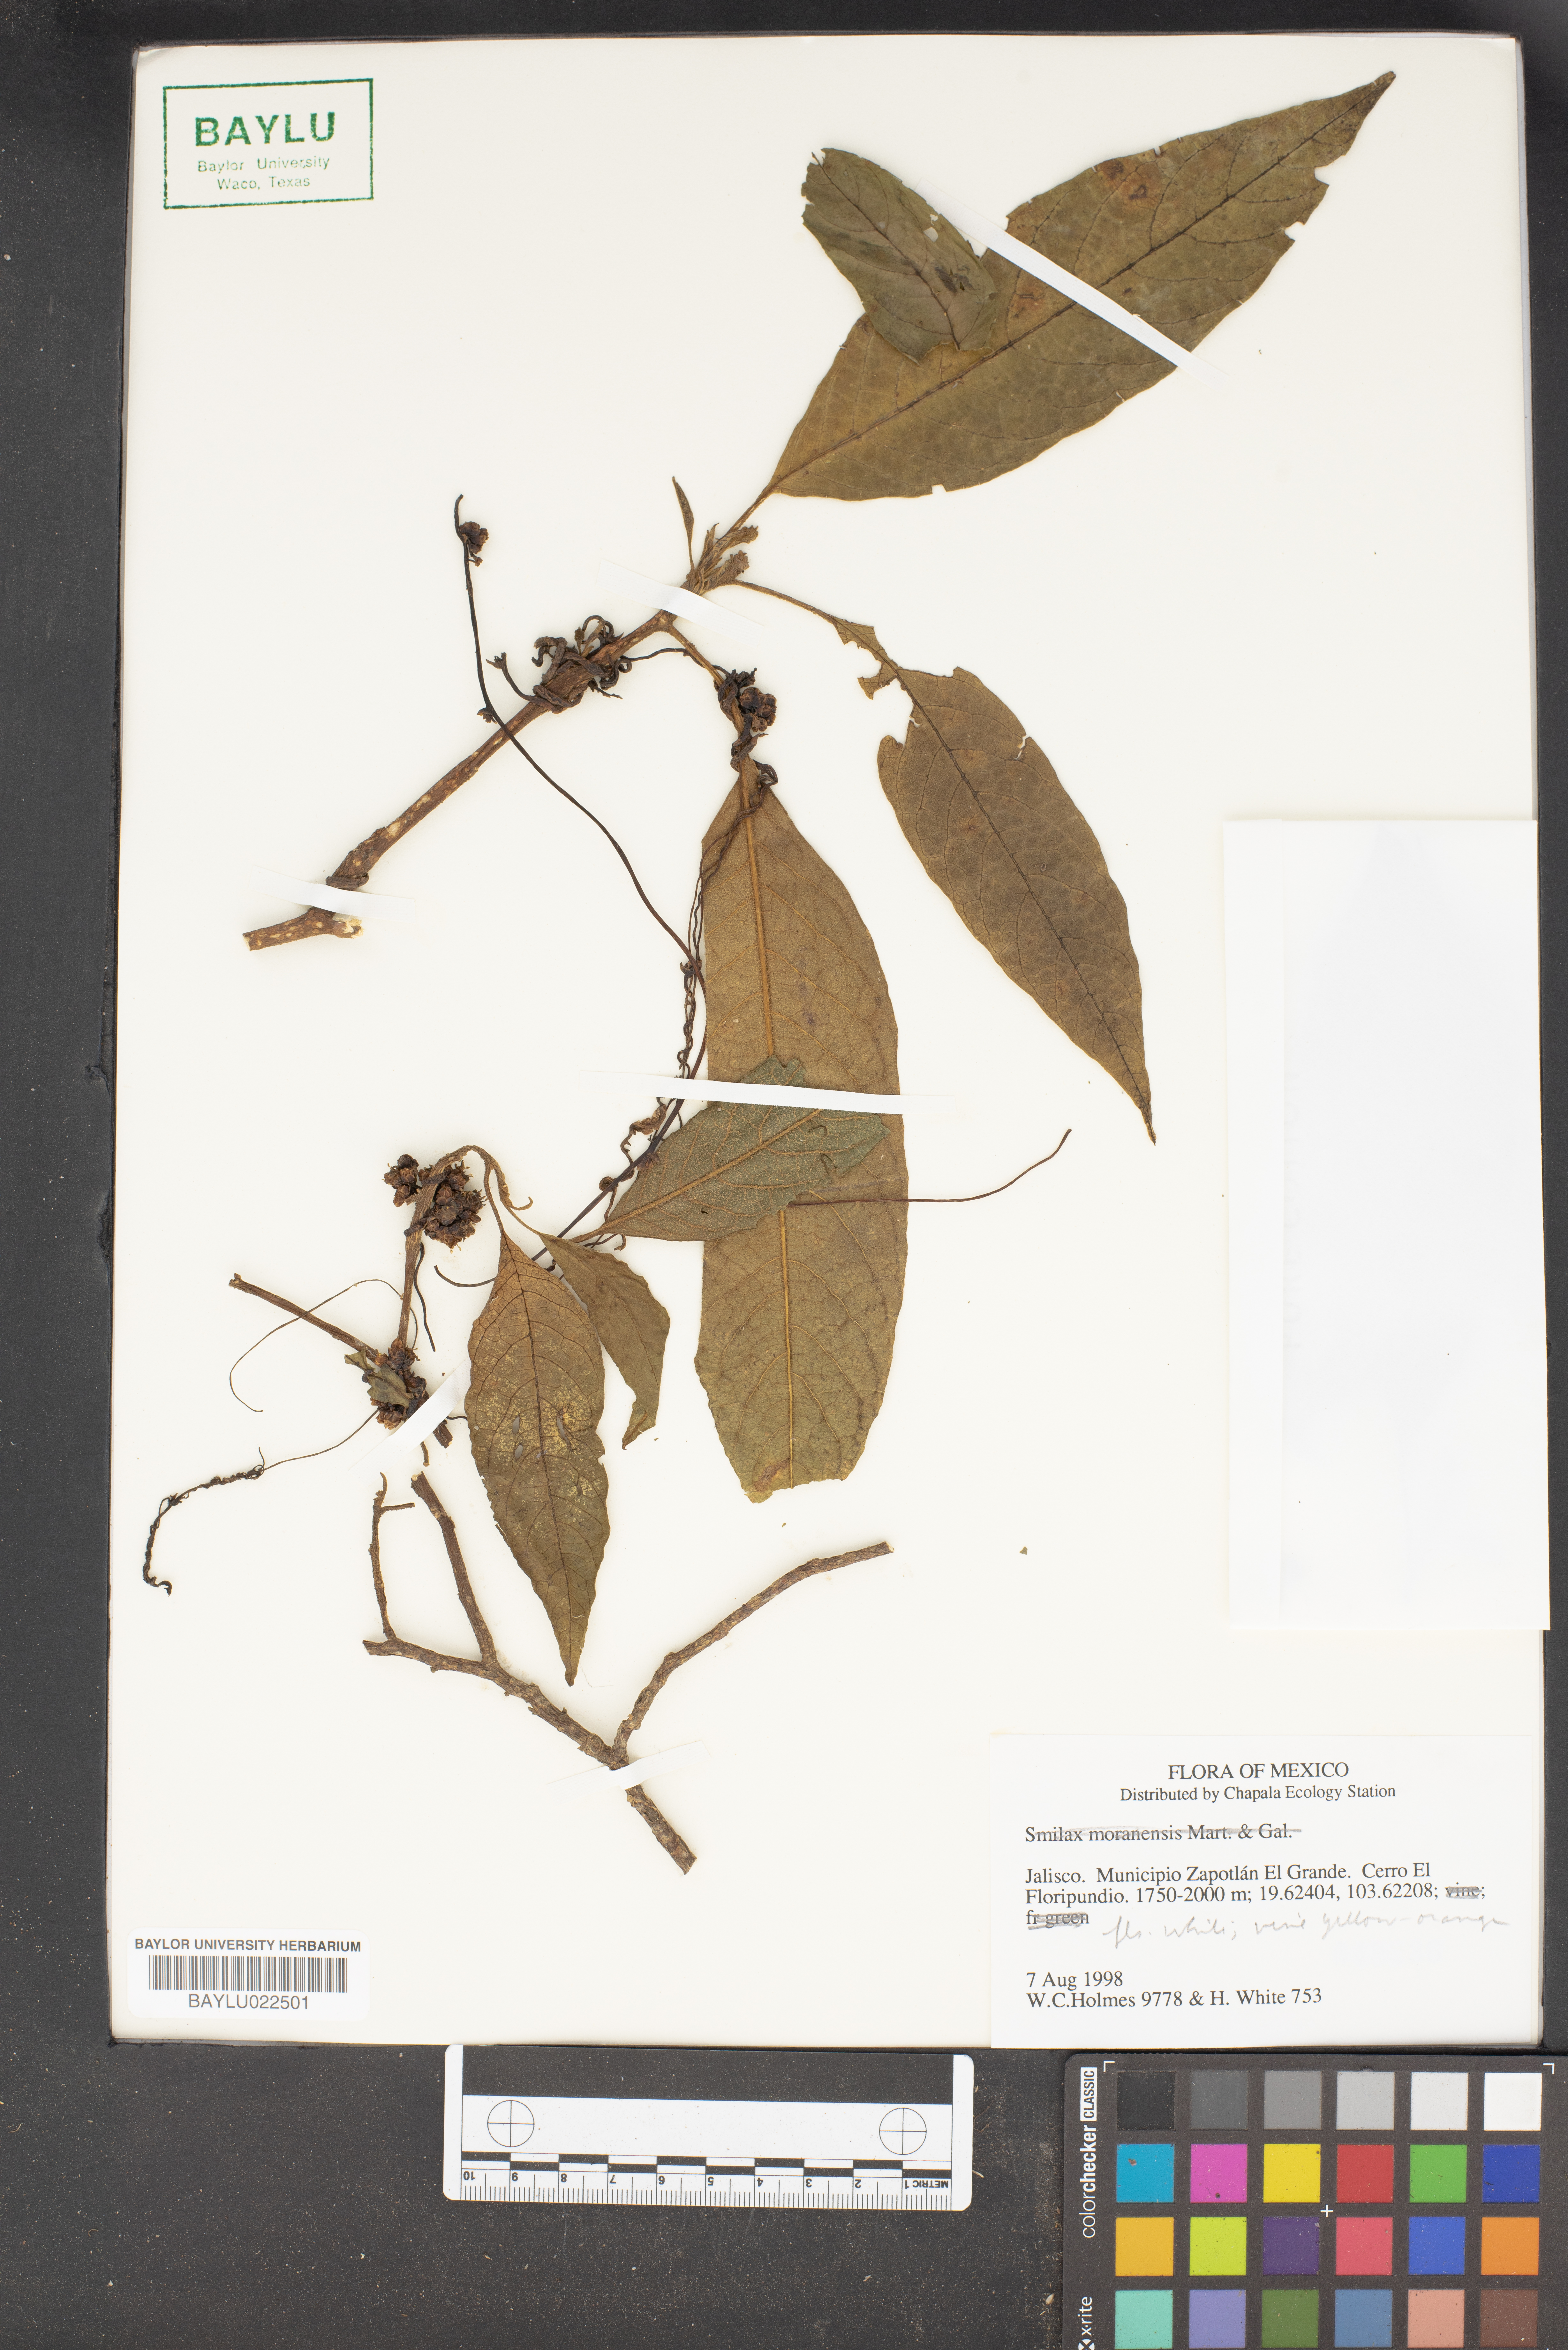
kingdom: Plantae
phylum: Tracheophyta
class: Liliopsida
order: Liliales
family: Smilacaceae
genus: Smilax
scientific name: Smilax moranensis
